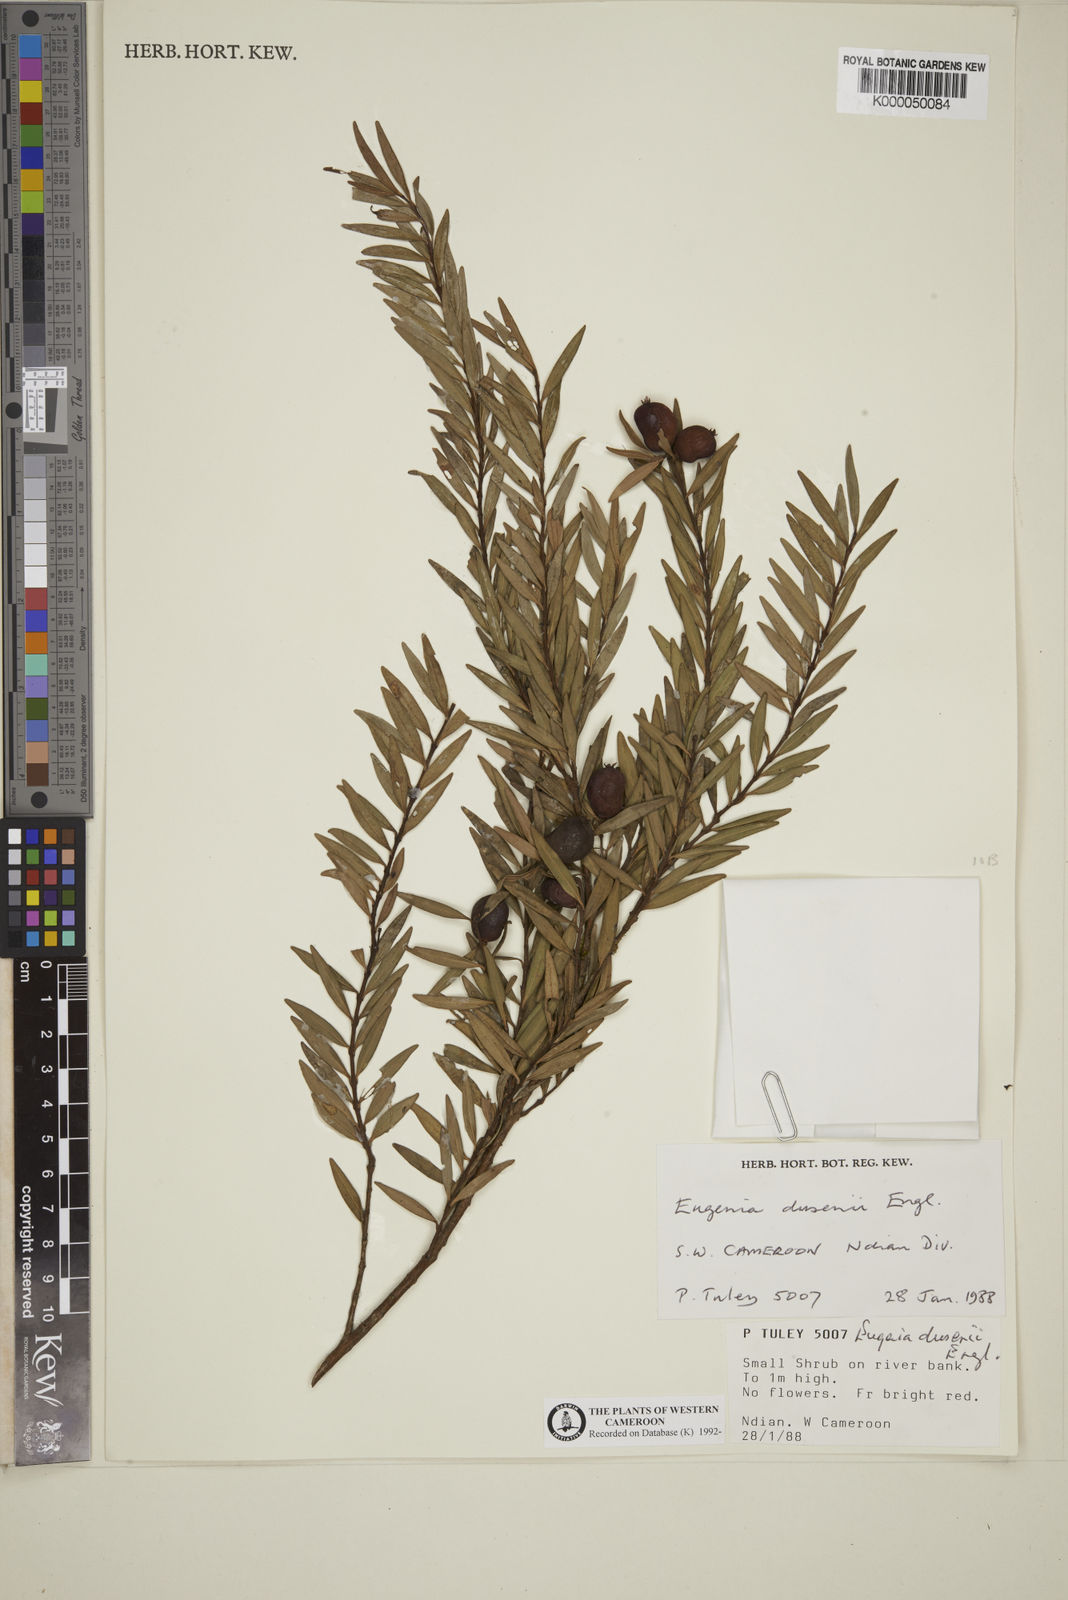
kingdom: Plantae
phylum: Tracheophyta
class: Magnoliopsida
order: Myrtales
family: Myrtaceae
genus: Eugenia
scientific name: Eugenia dusenii
